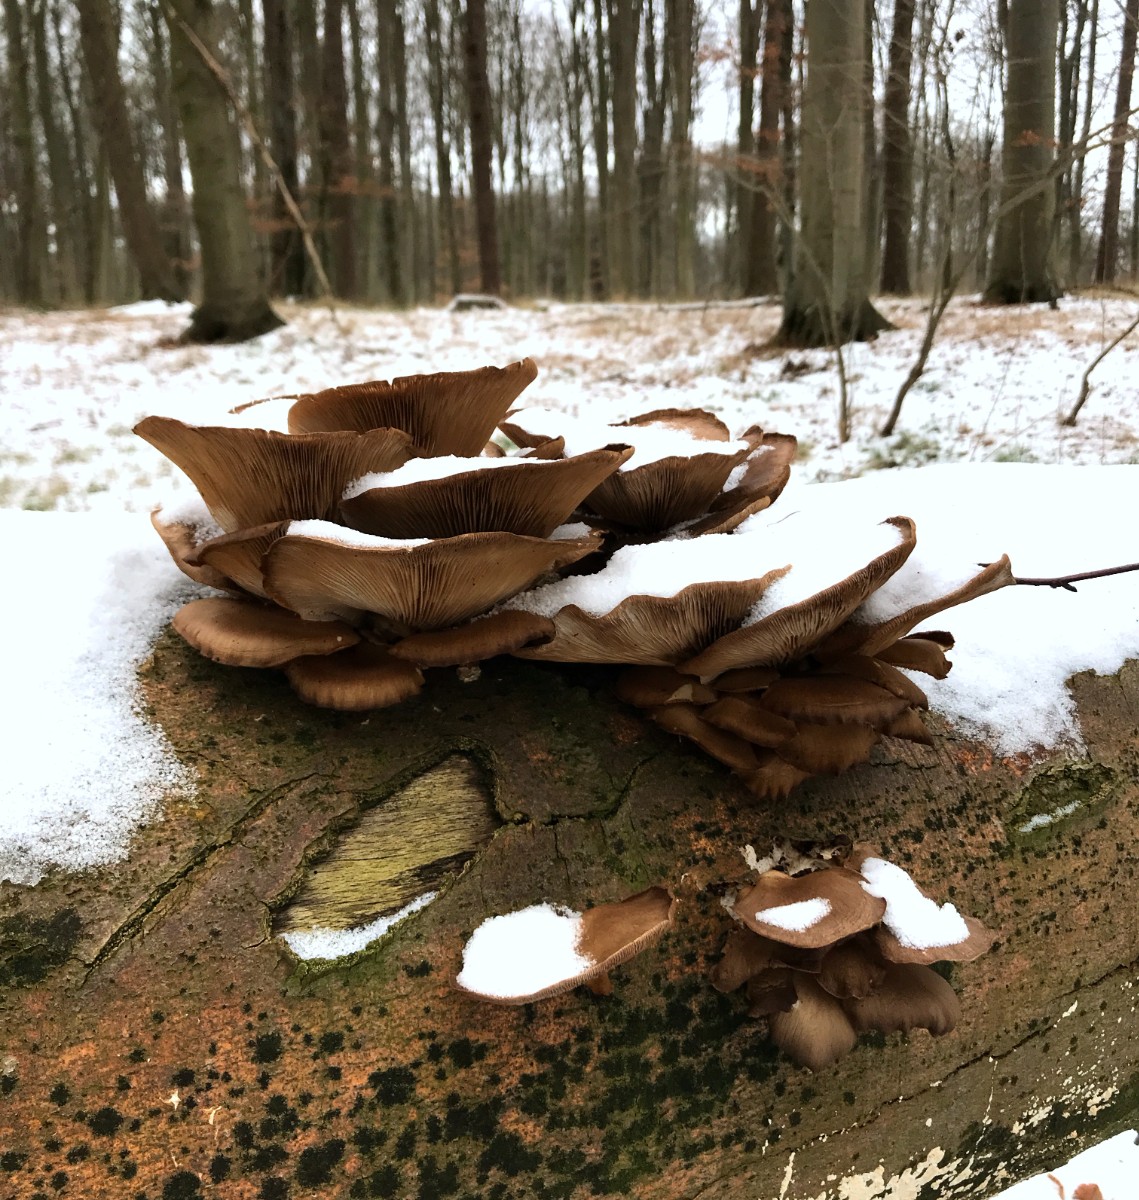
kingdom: Fungi
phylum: Basidiomycota
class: Agaricomycetes
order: Agaricales
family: Pleurotaceae
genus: Pleurotus
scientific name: Pleurotus ostreatus
